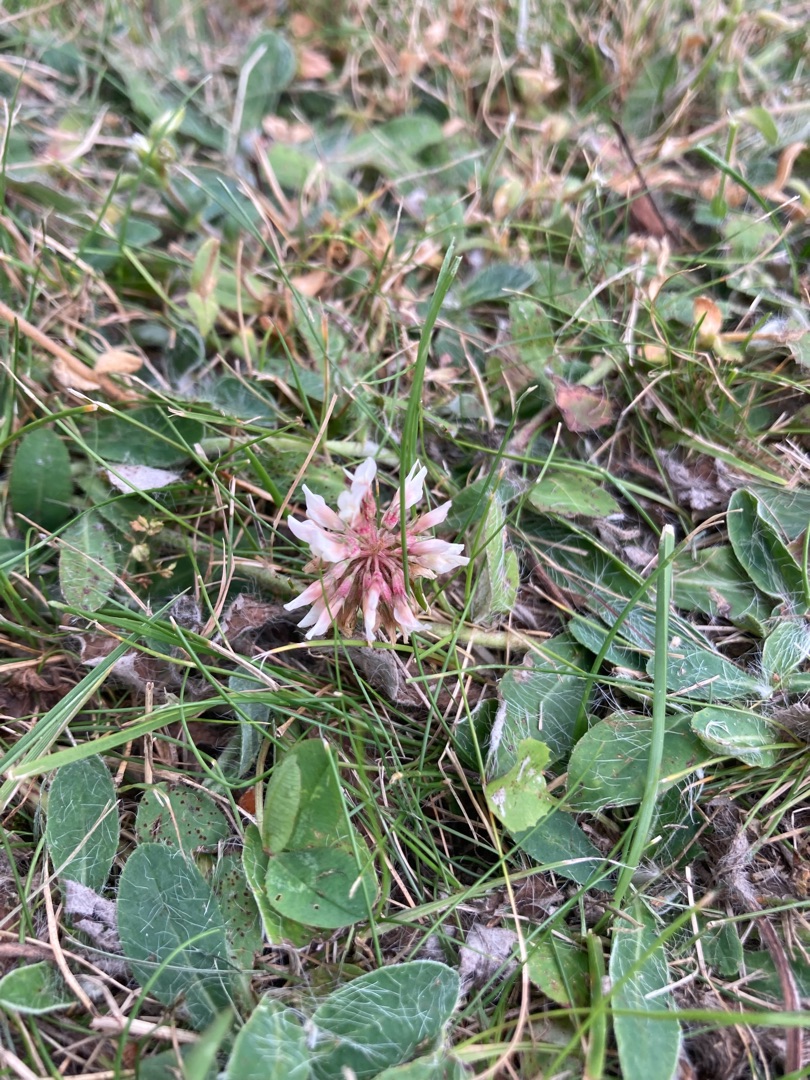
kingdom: Plantae
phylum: Tracheophyta
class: Magnoliopsida
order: Fabales
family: Fabaceae
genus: Trifolium
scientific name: Trifolium repens
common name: Hvid-kløver
